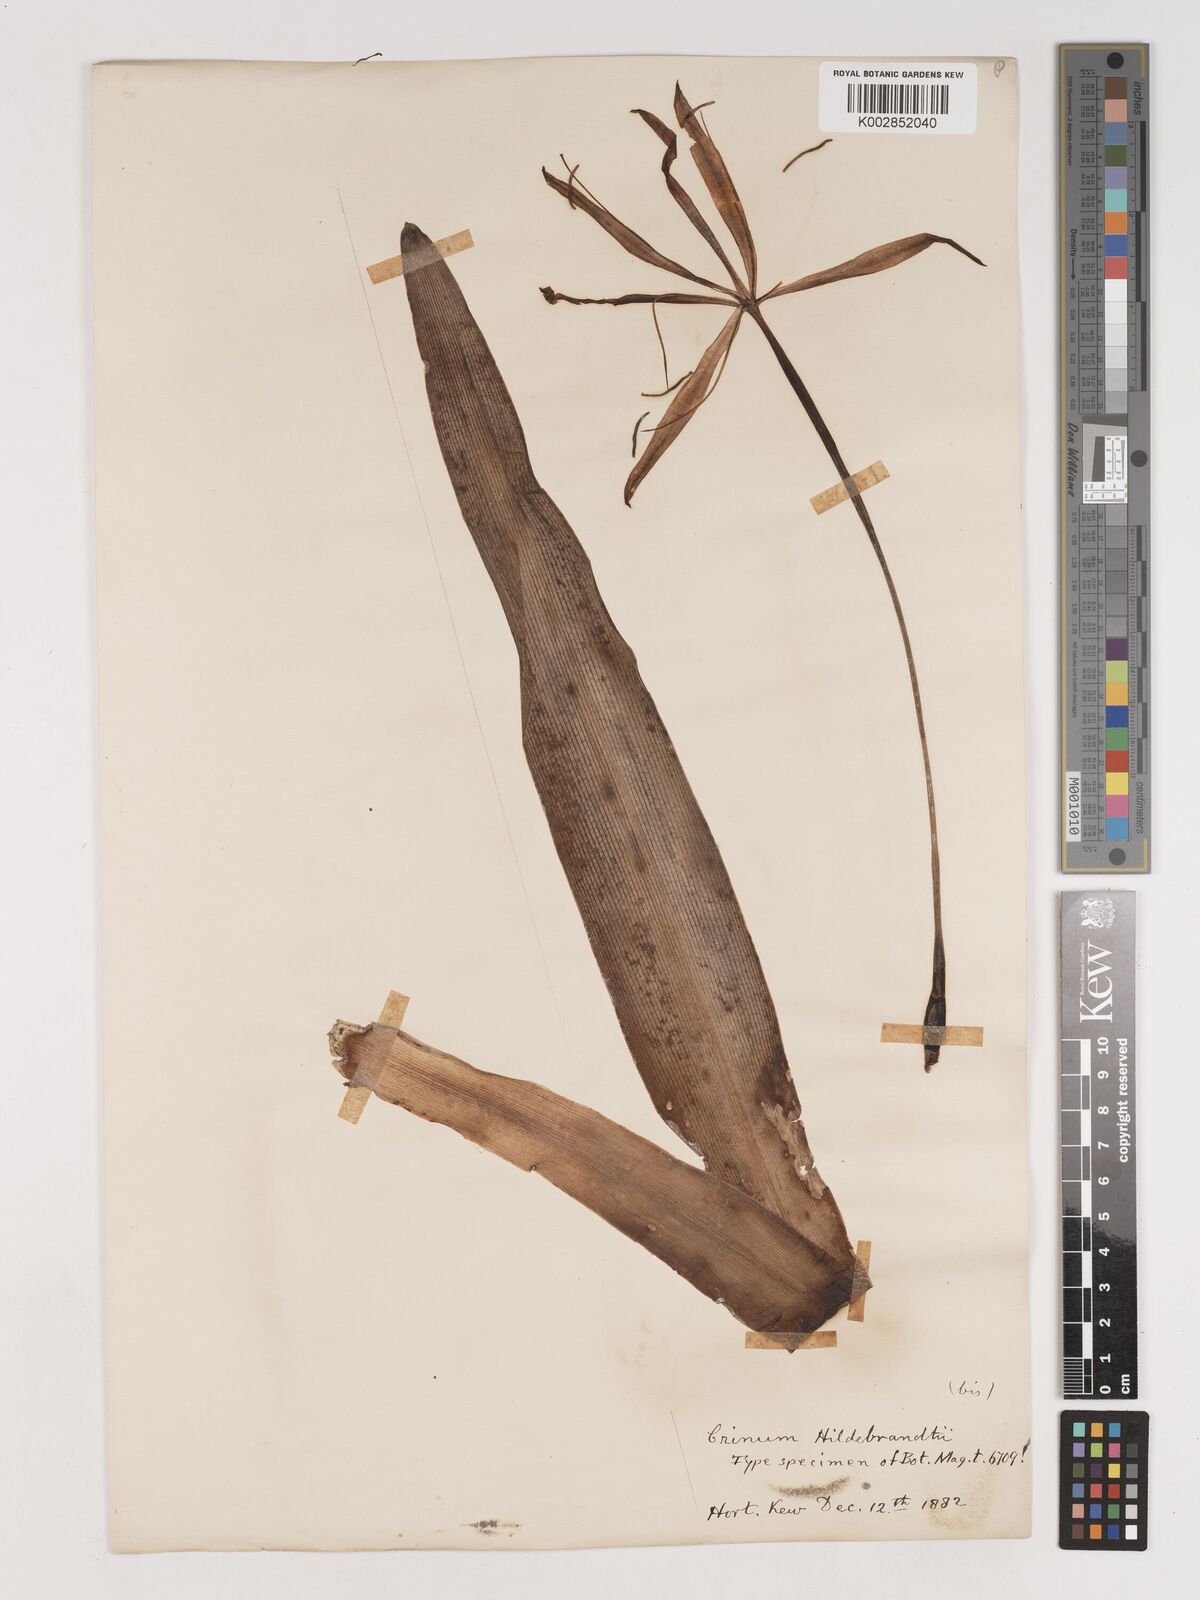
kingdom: Plantae
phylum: Tracheophyta
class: Liliopsida
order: Asparagales
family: Amaryllidaceae
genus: Crinum
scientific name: Crinum hildebrandtii
